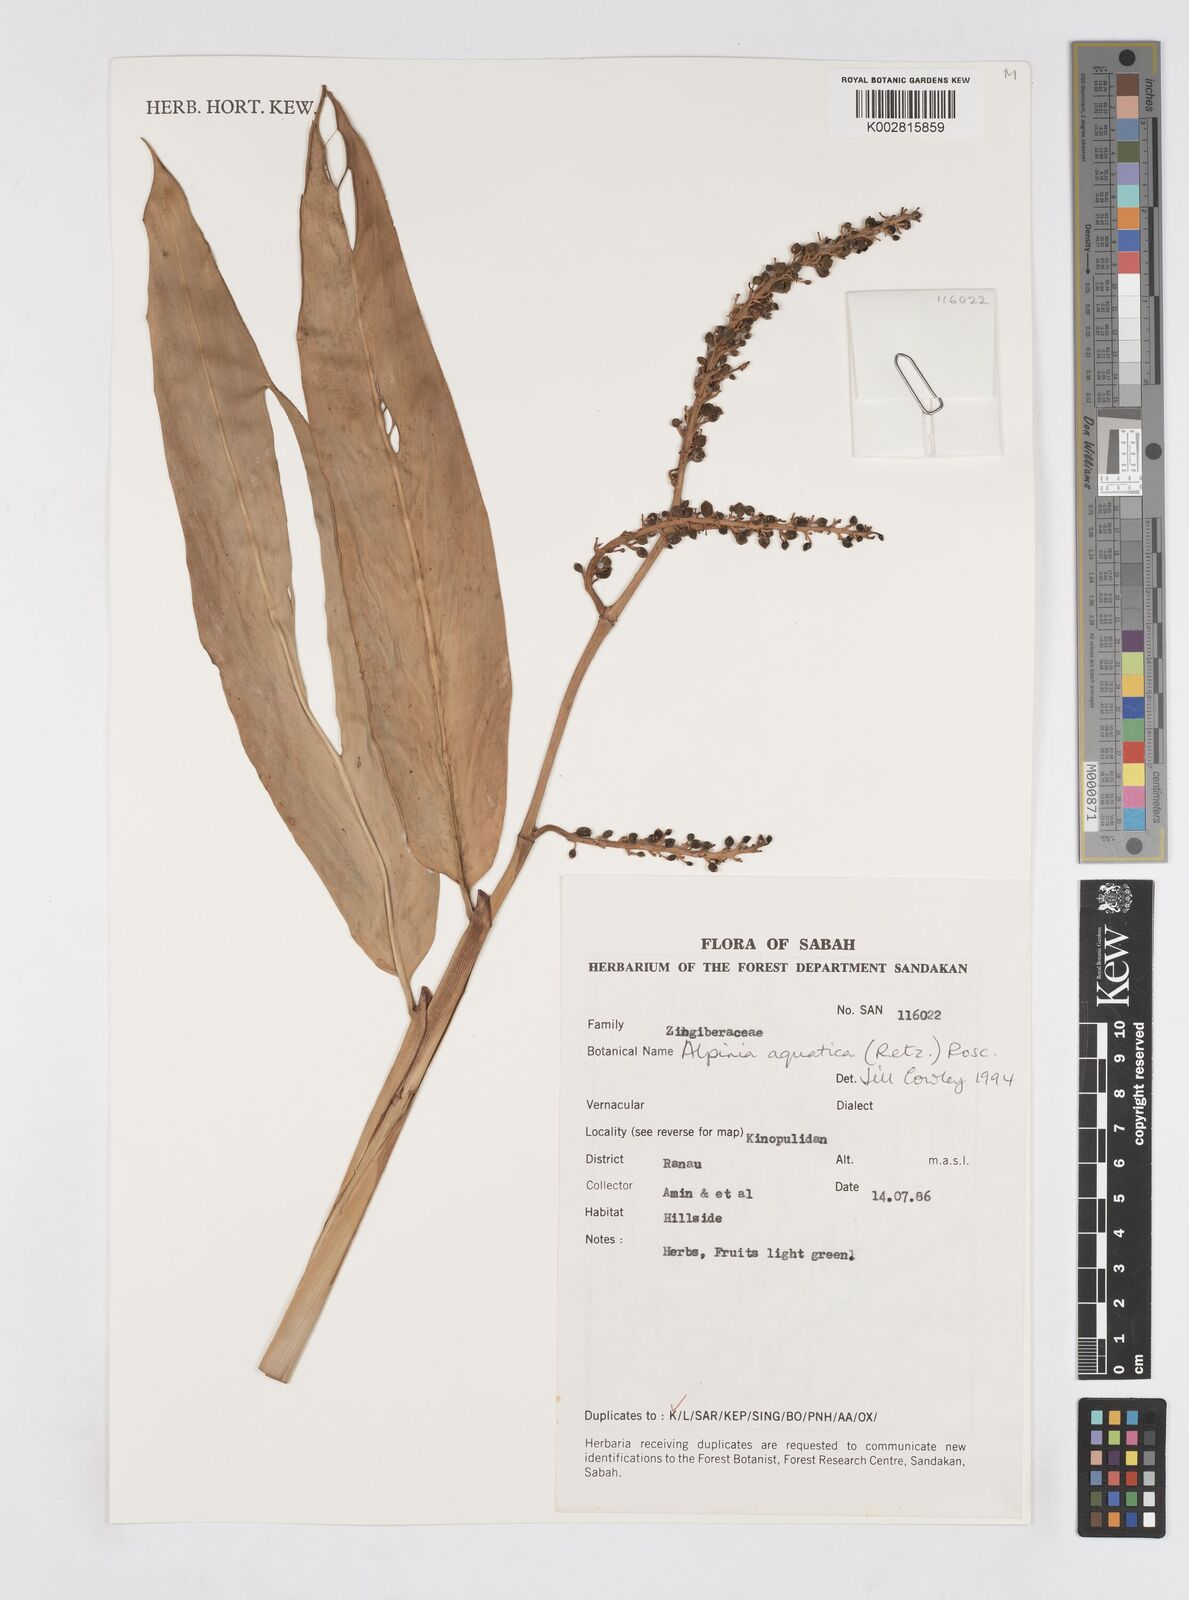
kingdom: Plantae
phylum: Tracheophyta
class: Liliopsida
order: Zingiberales
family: Zingiberaceae
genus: Alpinia
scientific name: Alpinia aquatica
